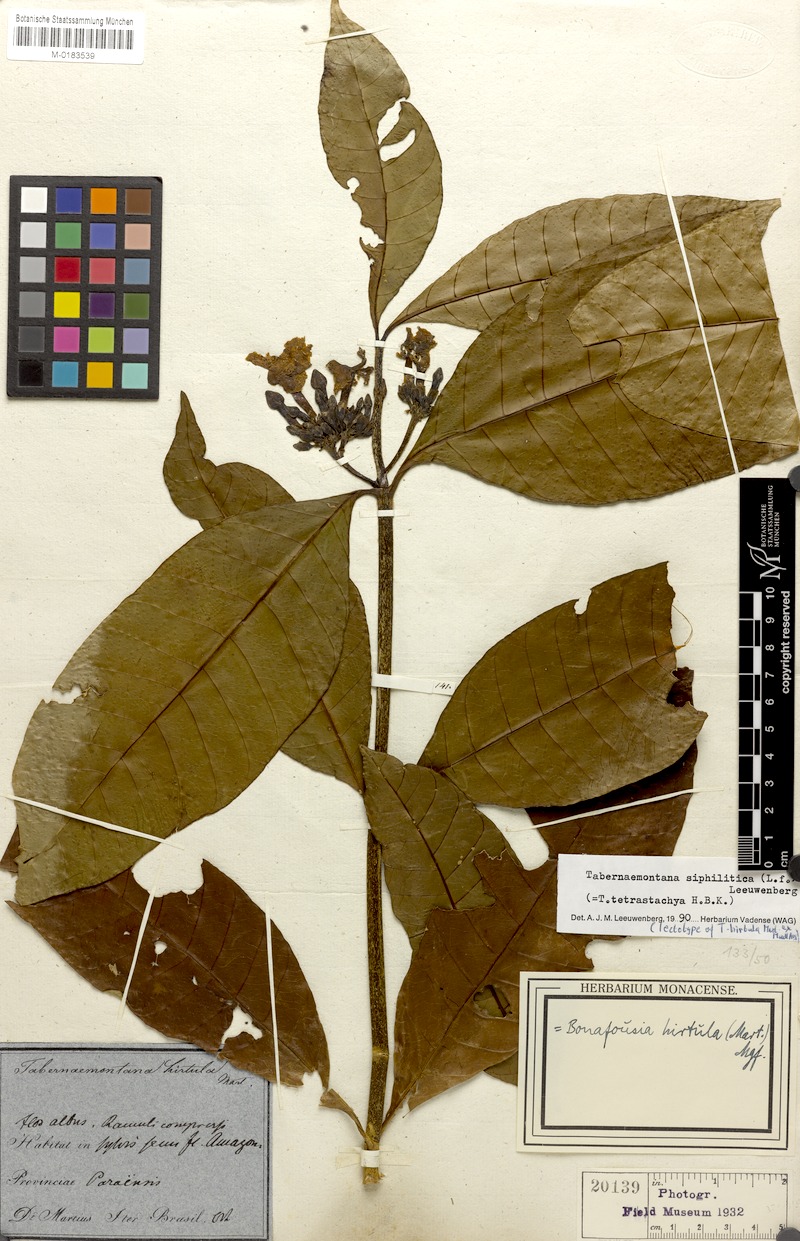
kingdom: Plantae
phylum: Tracheophyta
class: Magnoliopsida
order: Gentianales
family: Apocynaceae
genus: Tabernaemontana
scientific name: Tabernaemontana siphilitica
